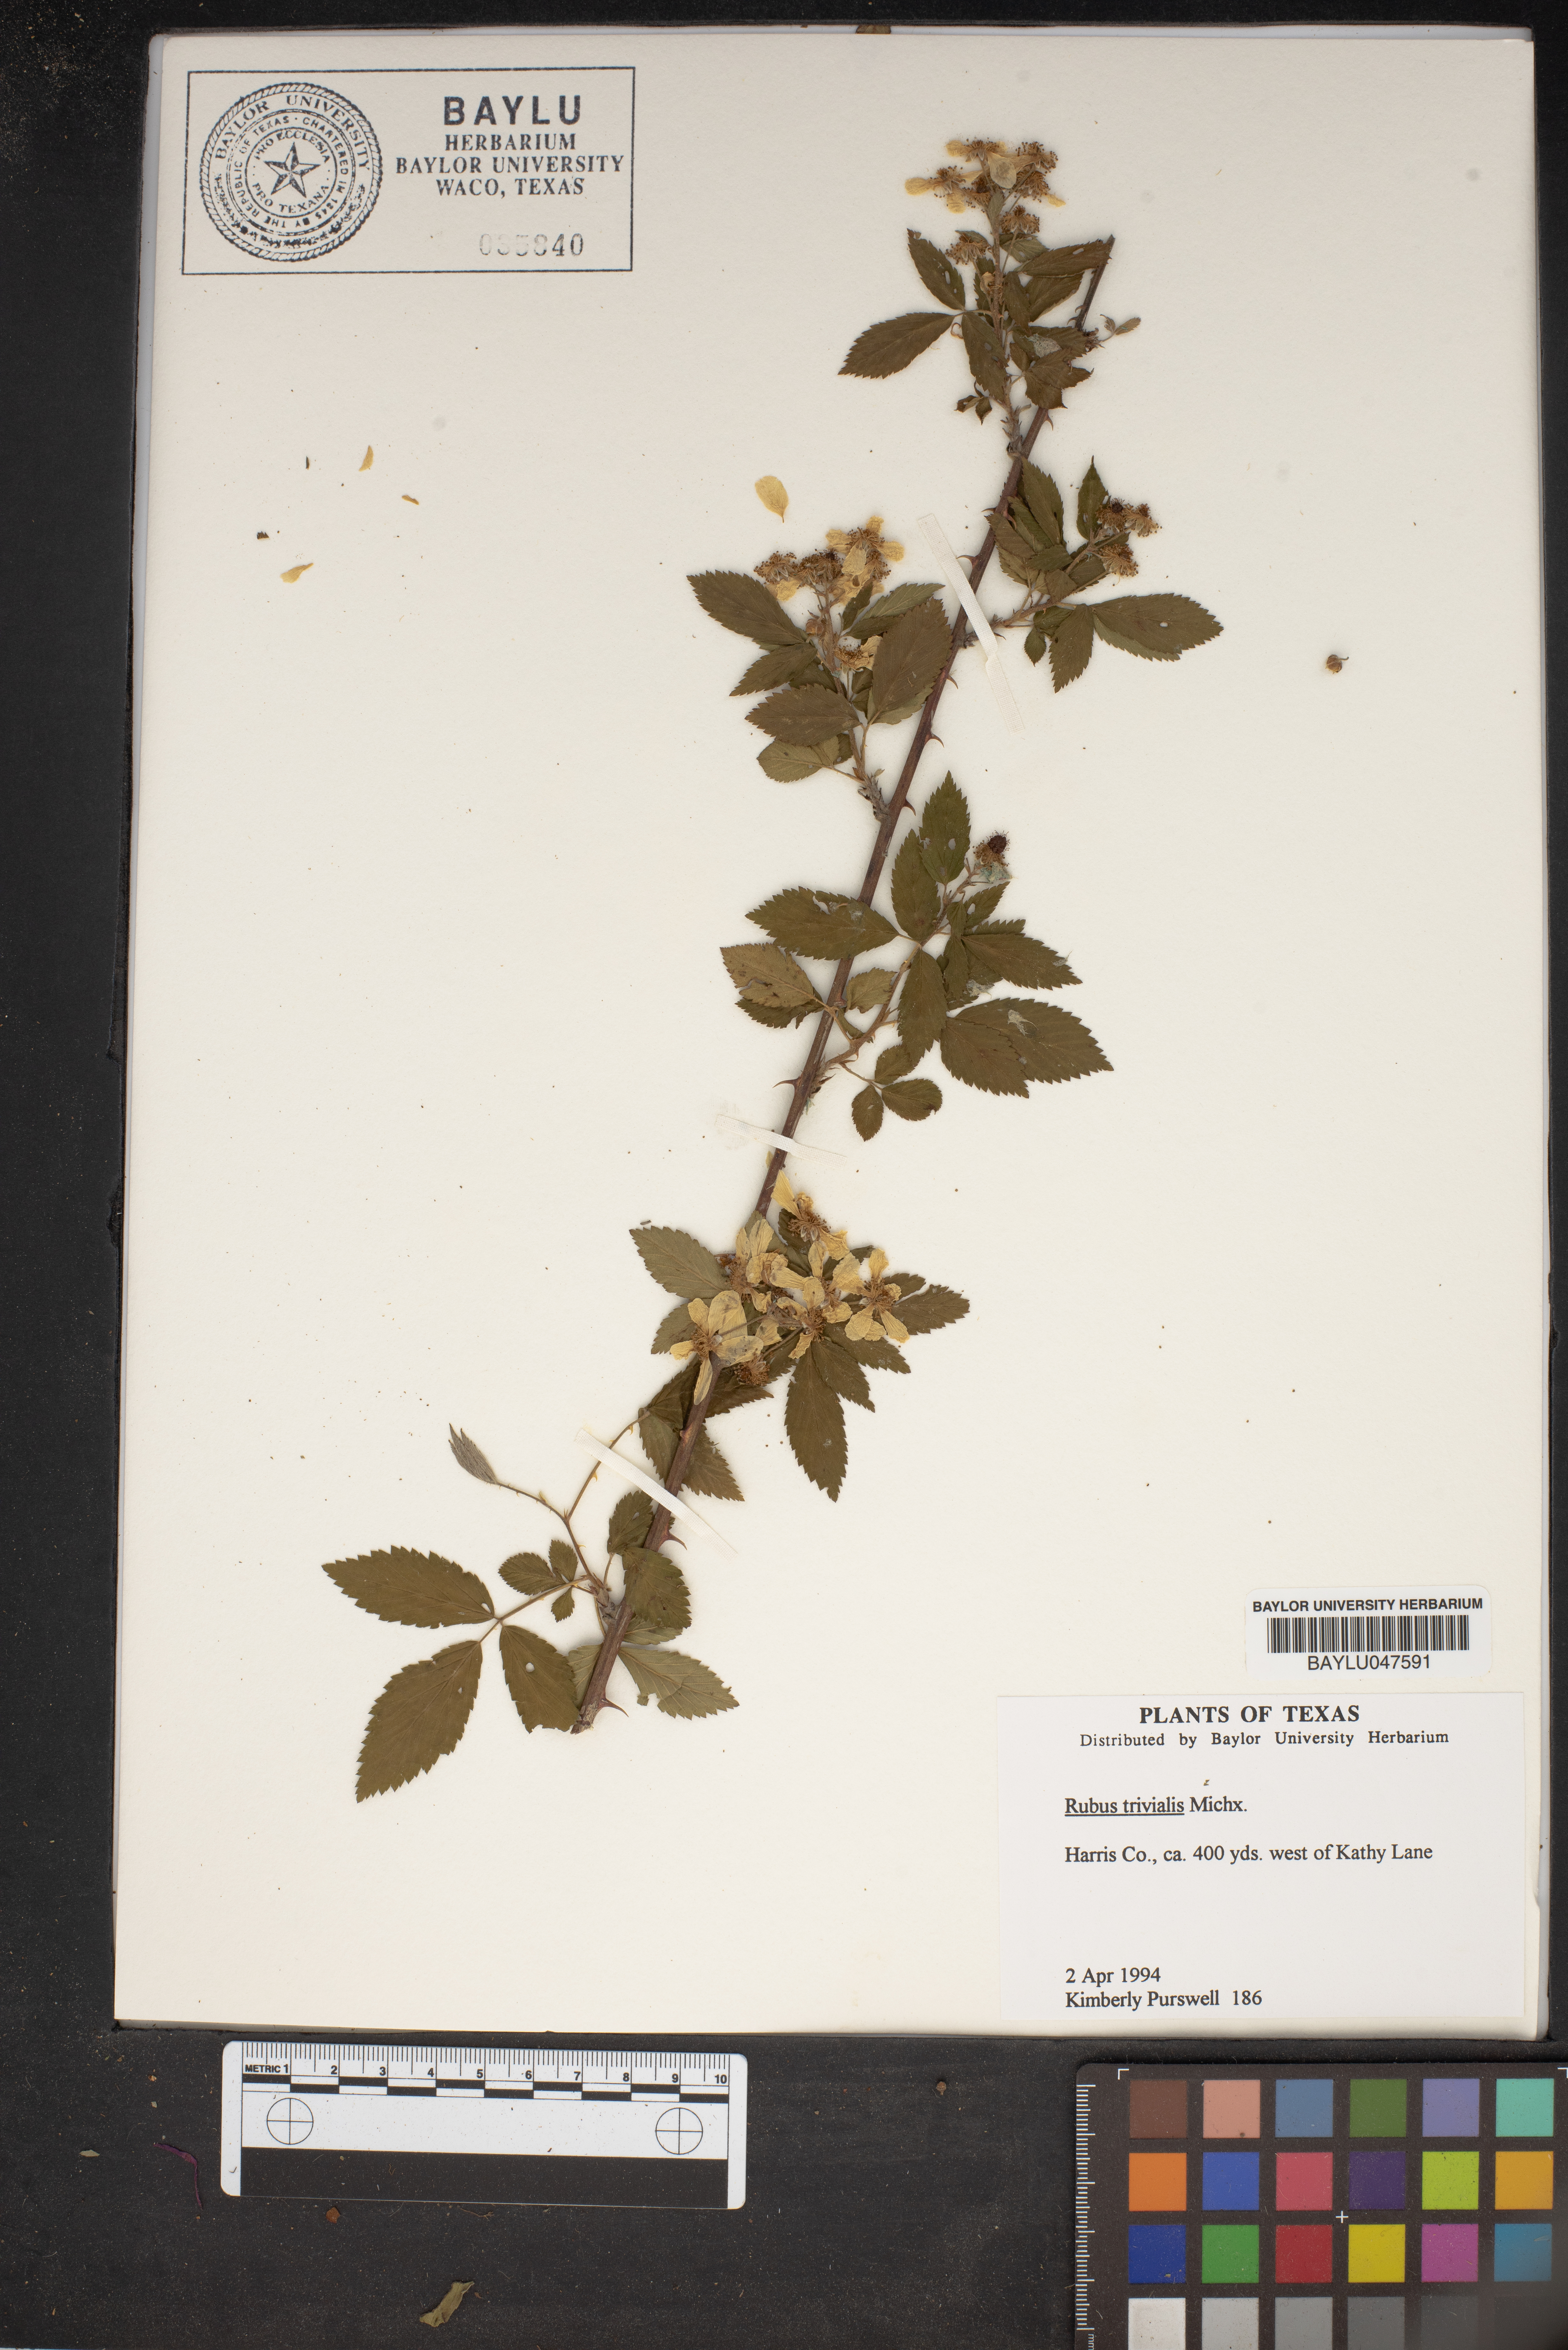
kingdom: Plantae
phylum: Tracheophyta
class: Magnoliopsida
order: Rosales
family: Rosaceae
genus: Rubus
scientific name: Rubus trivialis
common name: Southern dewberry
